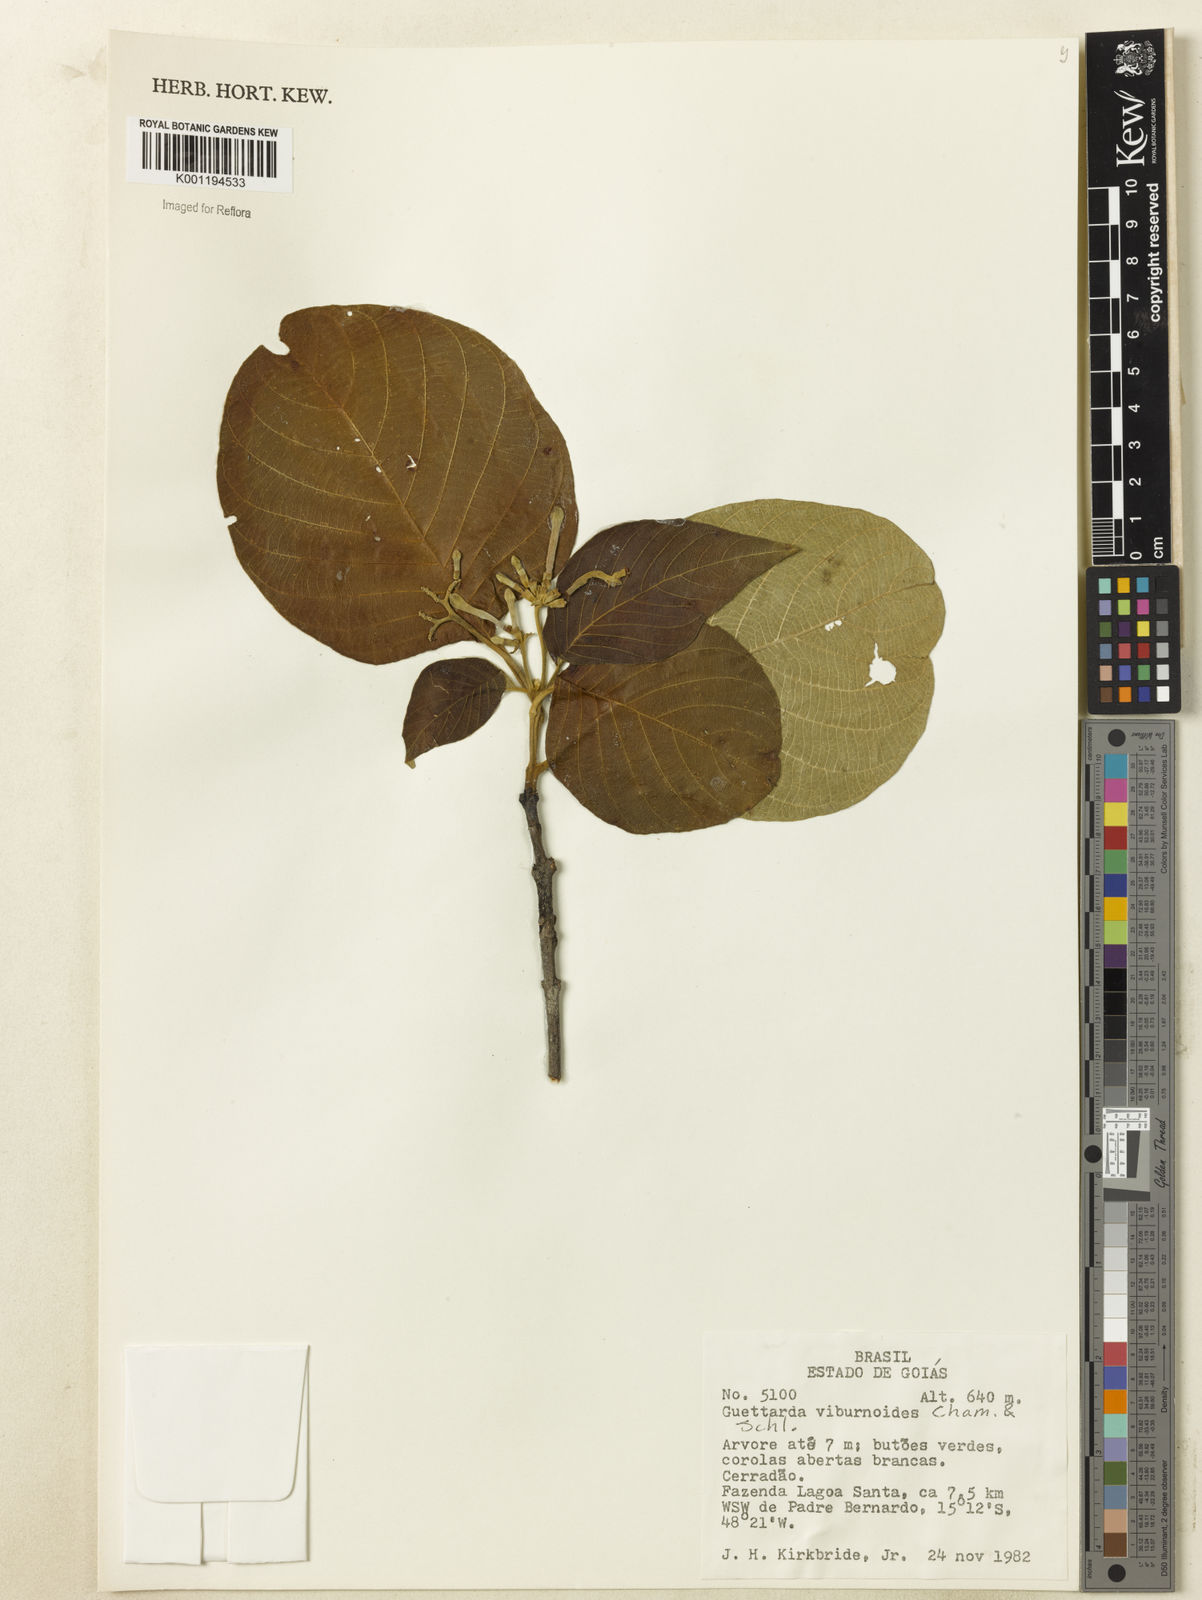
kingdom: Plantae
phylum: Tracheophyta
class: Magnoliopsida
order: Gentianales
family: Rubiaceae
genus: Guettarda
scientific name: Guettarda viburnoides
